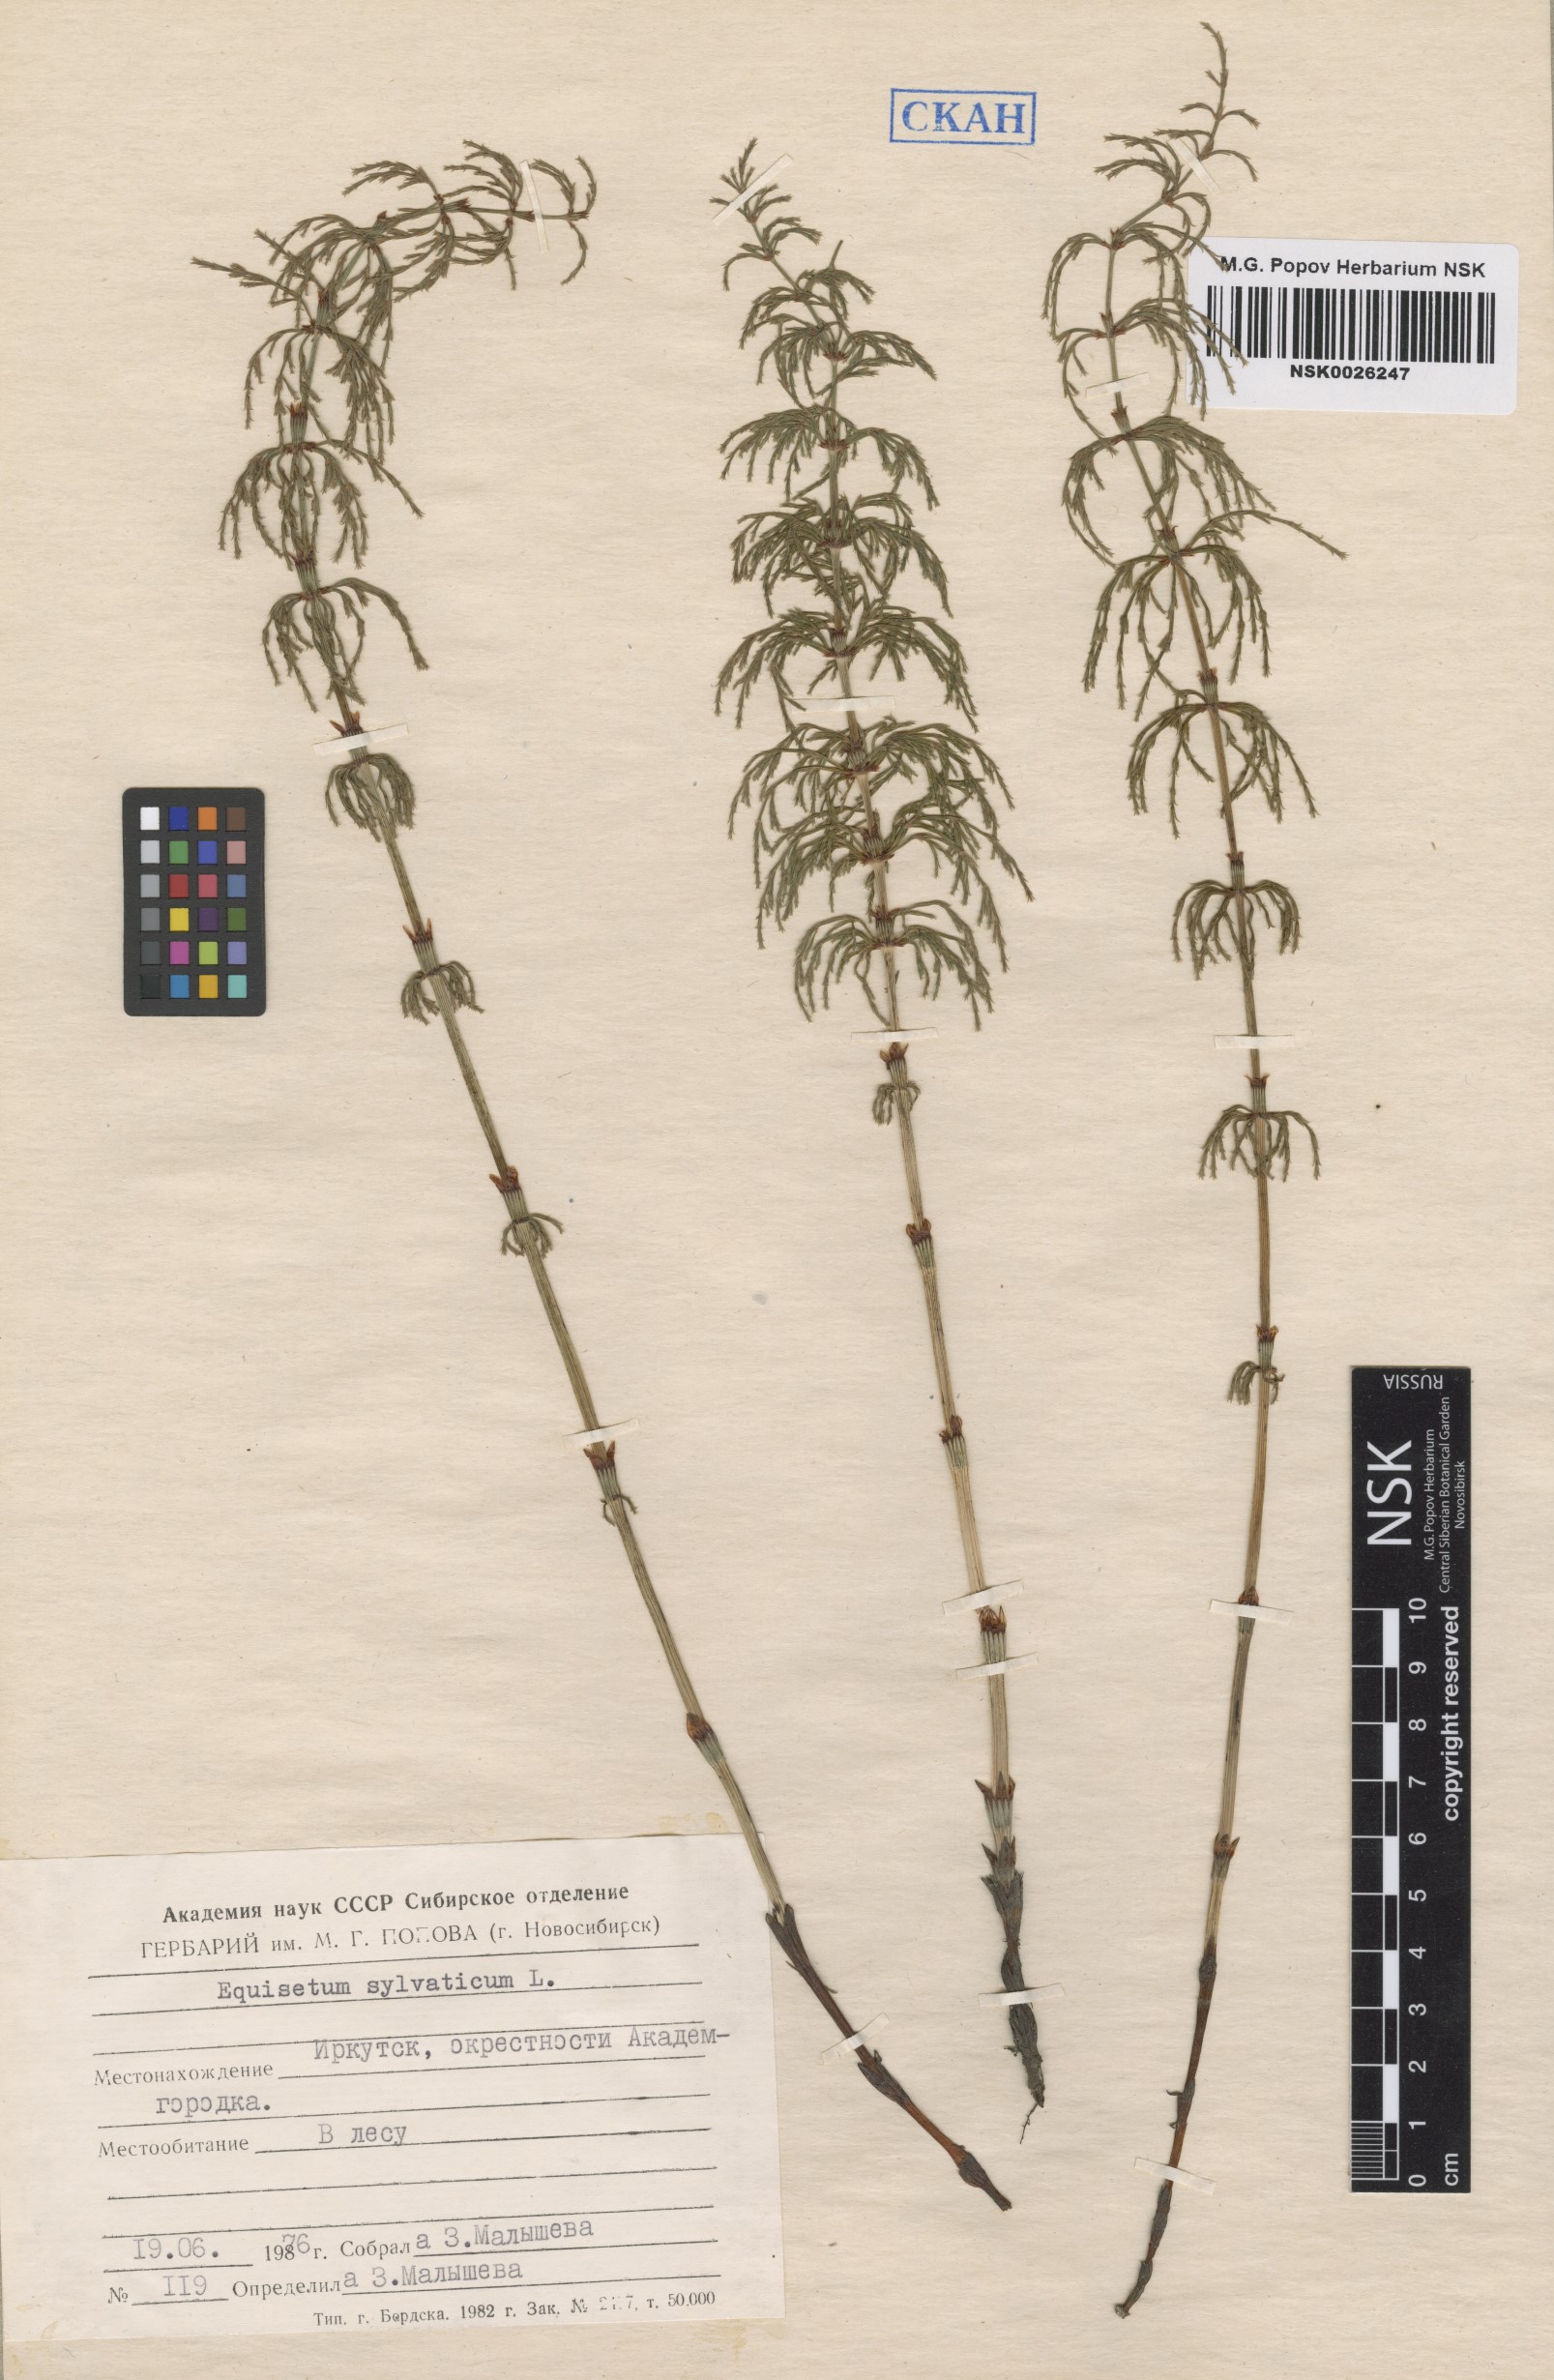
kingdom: Plantae
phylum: Tracheophyta
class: Polypodiopsida
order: Equisetales
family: Equisetaceae
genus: Equisetum
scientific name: Equisetum sylvaticum
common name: Wood horsetail
